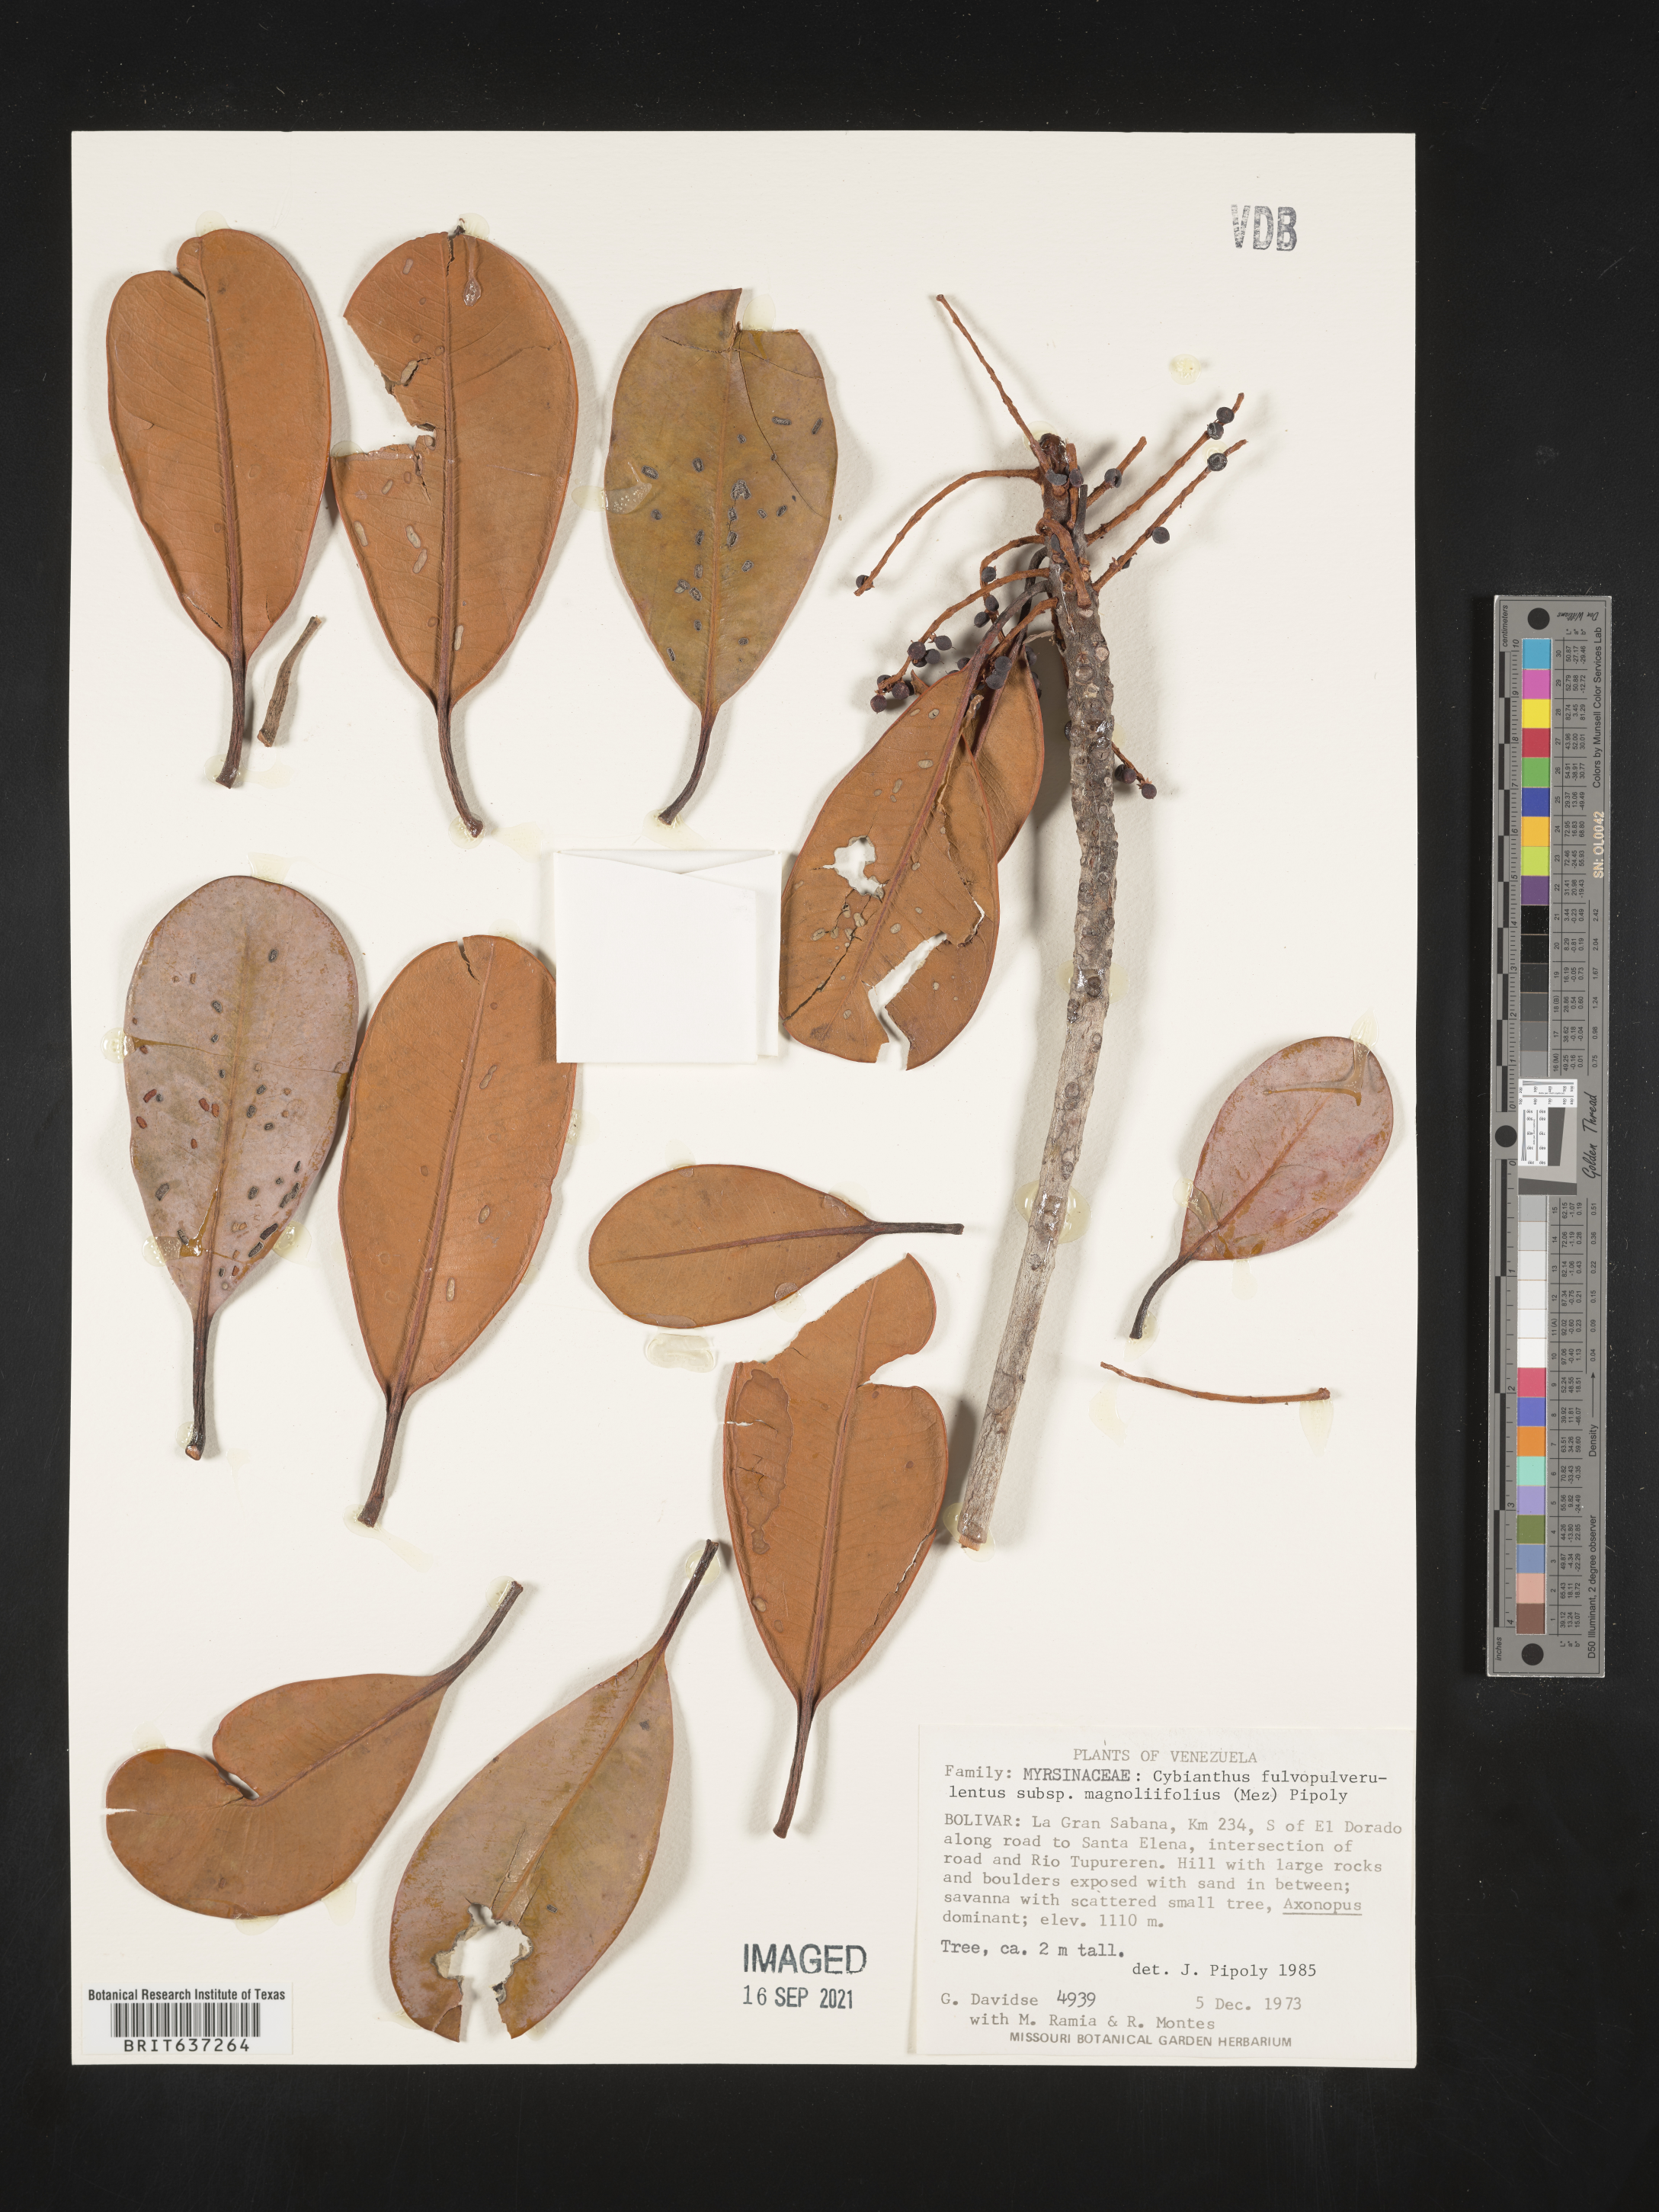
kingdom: Plantae
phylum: Tracheophyta
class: Magnoliopsida
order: Ericales
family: Primulaceae
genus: Cybianthus
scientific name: Cybianthus
